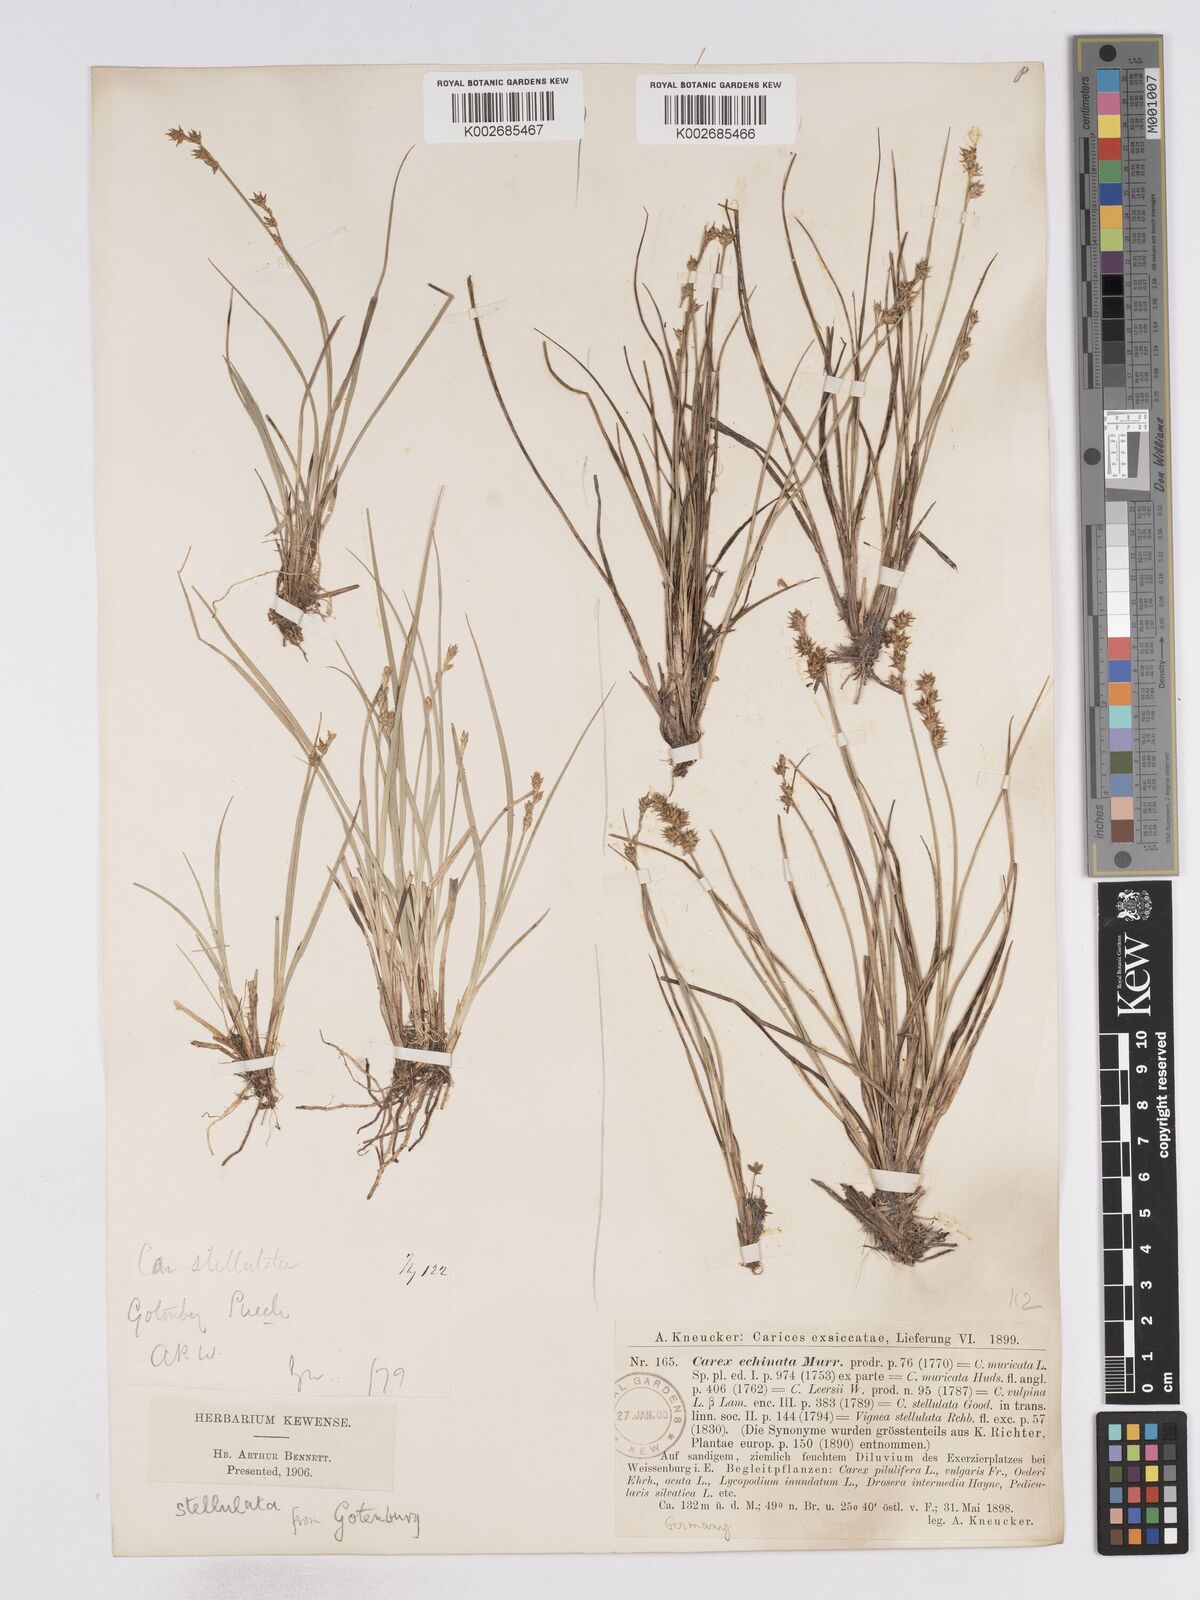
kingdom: Plantae
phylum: Tracheophyta
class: Liliopsida
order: Poales
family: Cyperaceae
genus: Carex
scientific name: Carex echinata
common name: Star sedge
